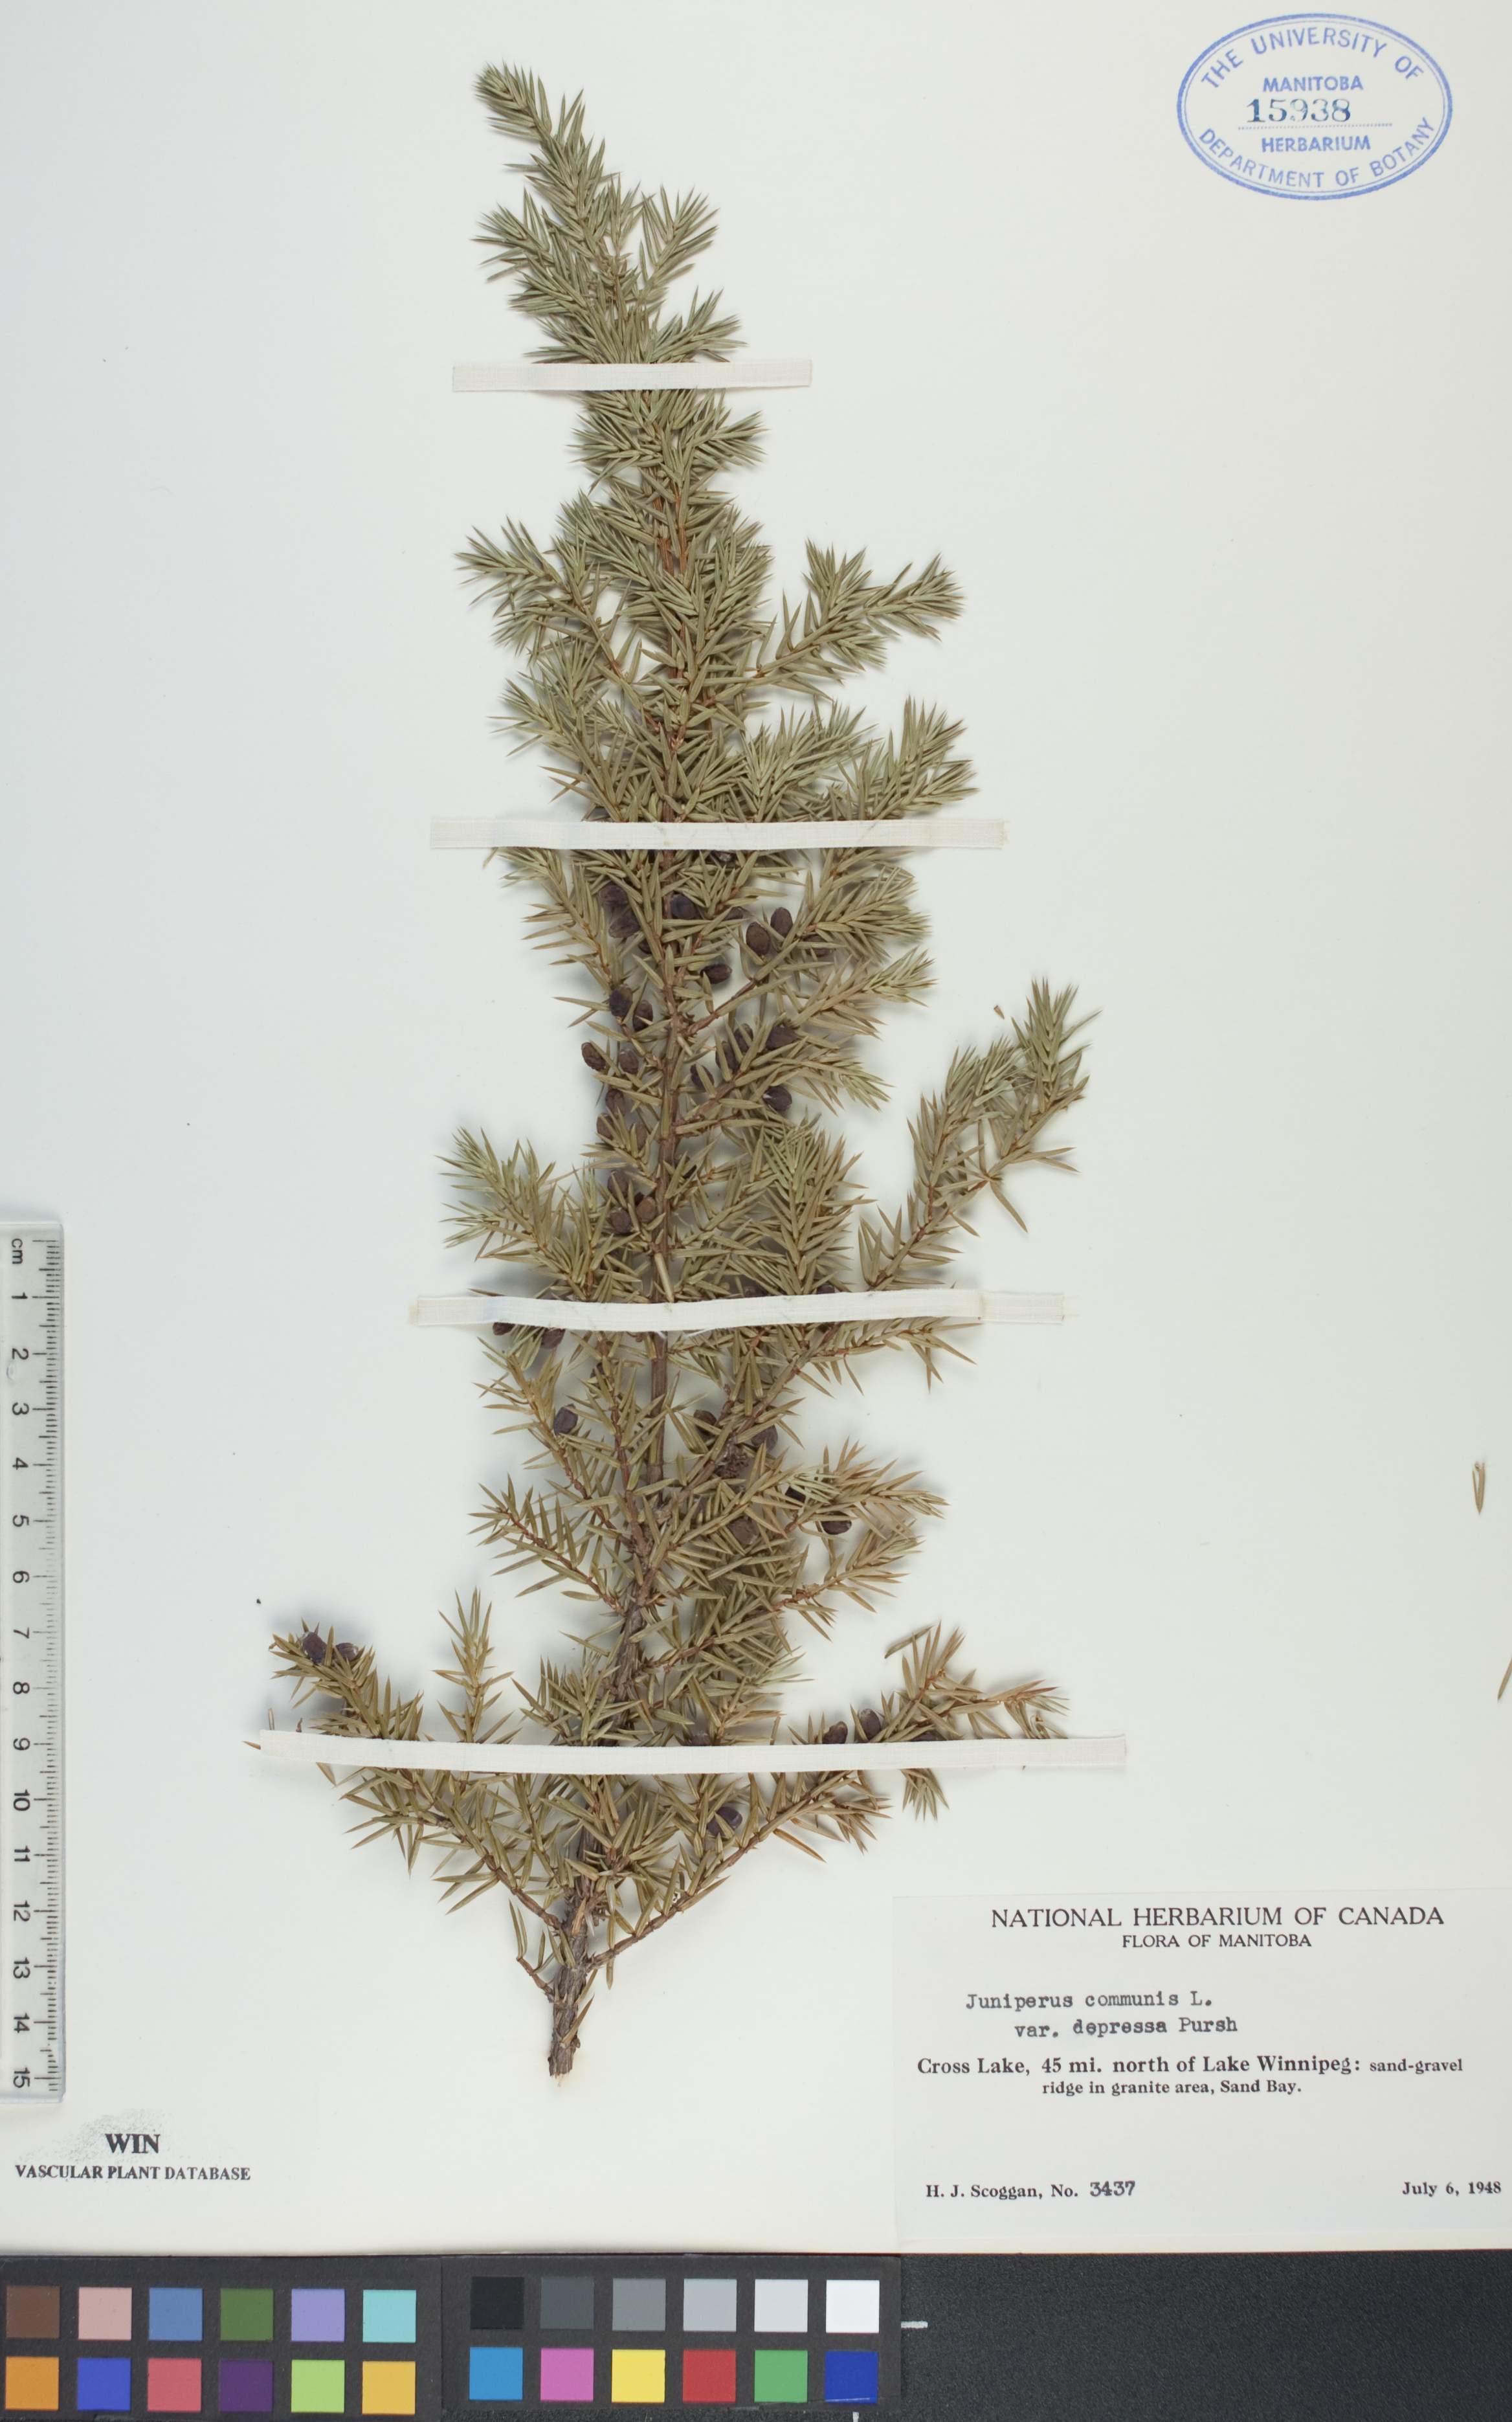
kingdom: Plantae
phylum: Tracheophyta
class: Pinopsida
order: Pinales
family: Cupressaceae
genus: Juniperus
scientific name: Juniperus communis
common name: Common juniper
